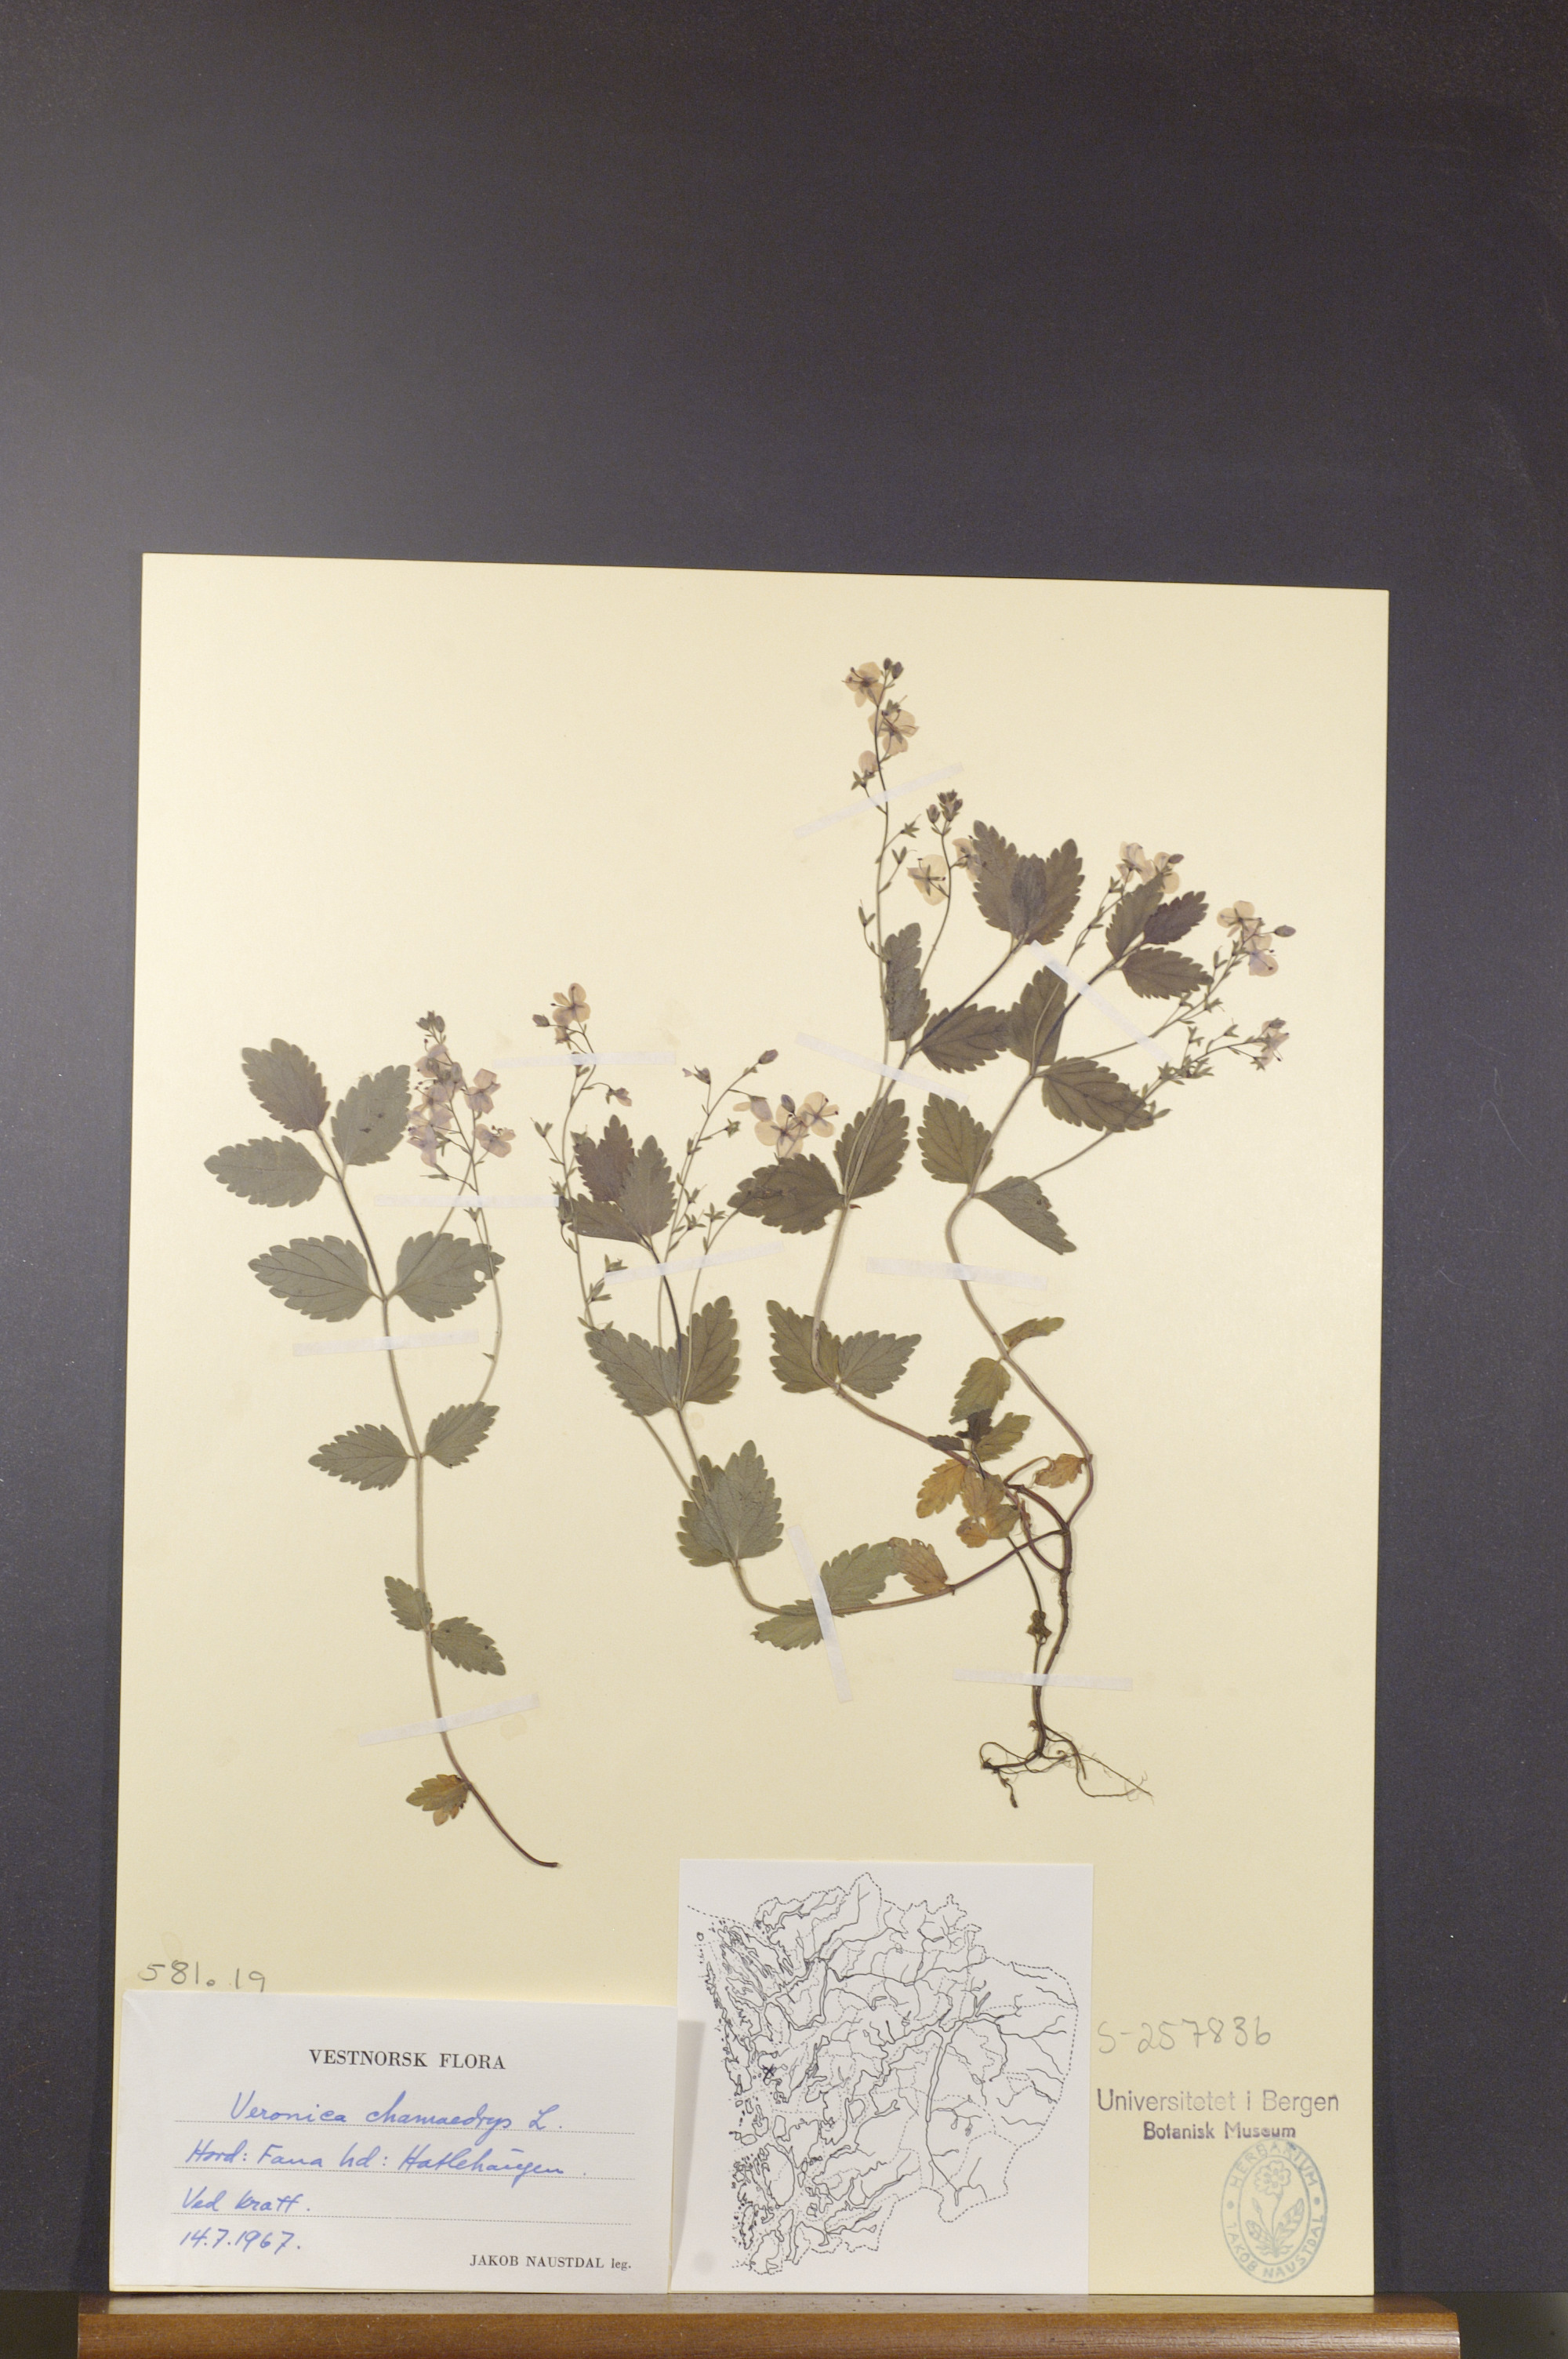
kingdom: Plantae
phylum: Tracheophyta
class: Magnoliopsida
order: Lamiales
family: Plantaginaceae
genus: Veronica
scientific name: Veronica chamaedrys
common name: Germander speedwell
